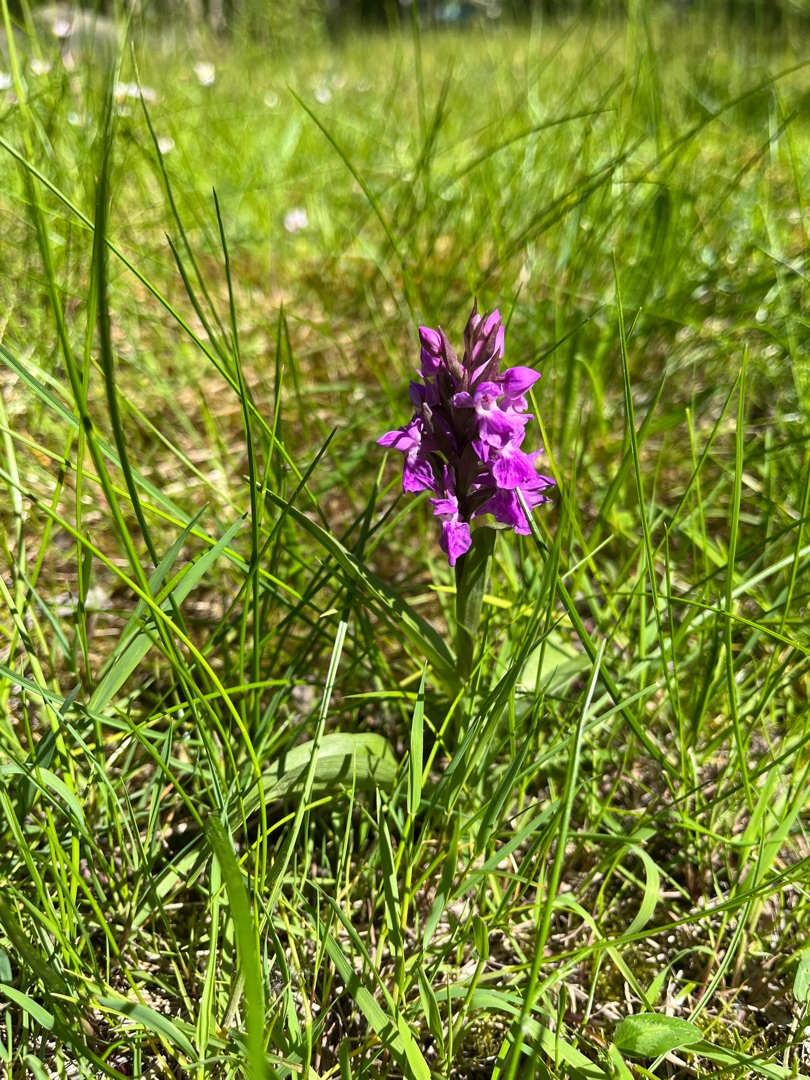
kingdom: Plantae
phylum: Tracheophyta
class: Liliopsida
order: Asparagales
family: Orchidaceae
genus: Dactylorhiza
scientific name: Dactylorhiza majalis
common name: Maj-gøgeurt
